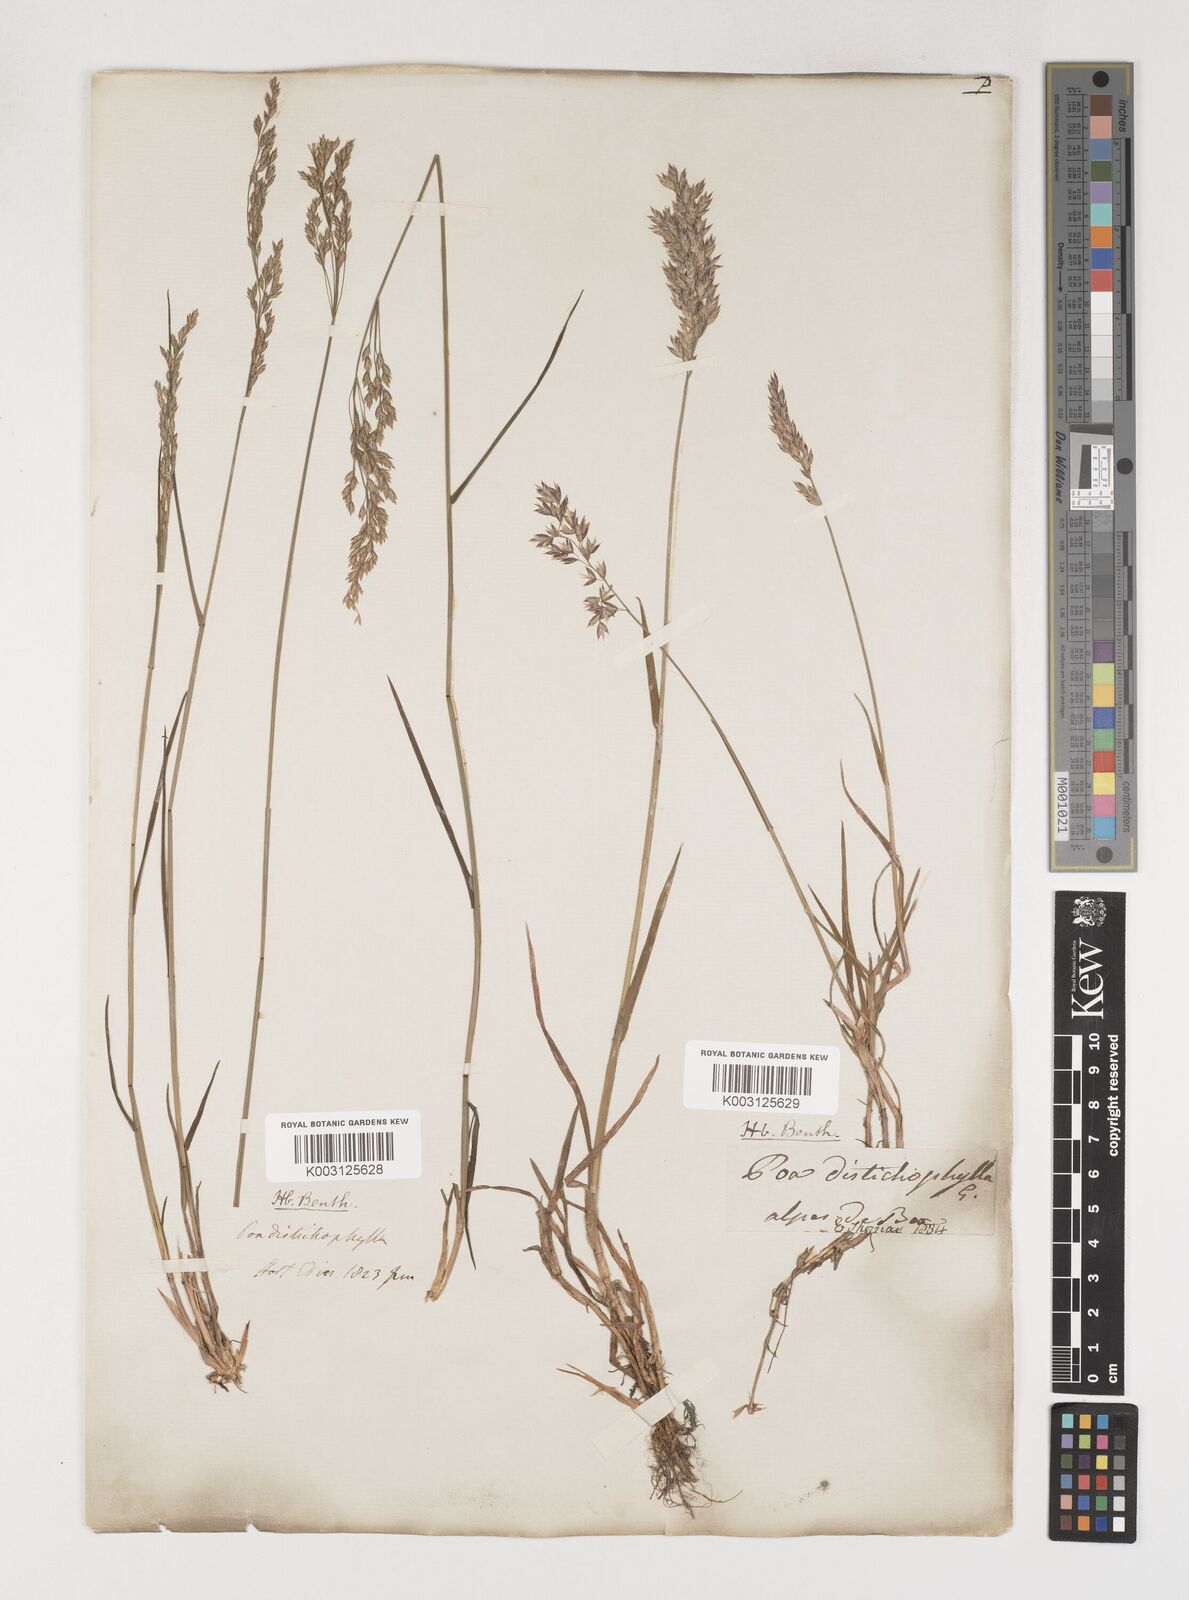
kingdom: Plantae
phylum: Tracheophyta
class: Liliopsida
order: Poales
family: Poaceae
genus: Poa
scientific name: Poa cenisia
